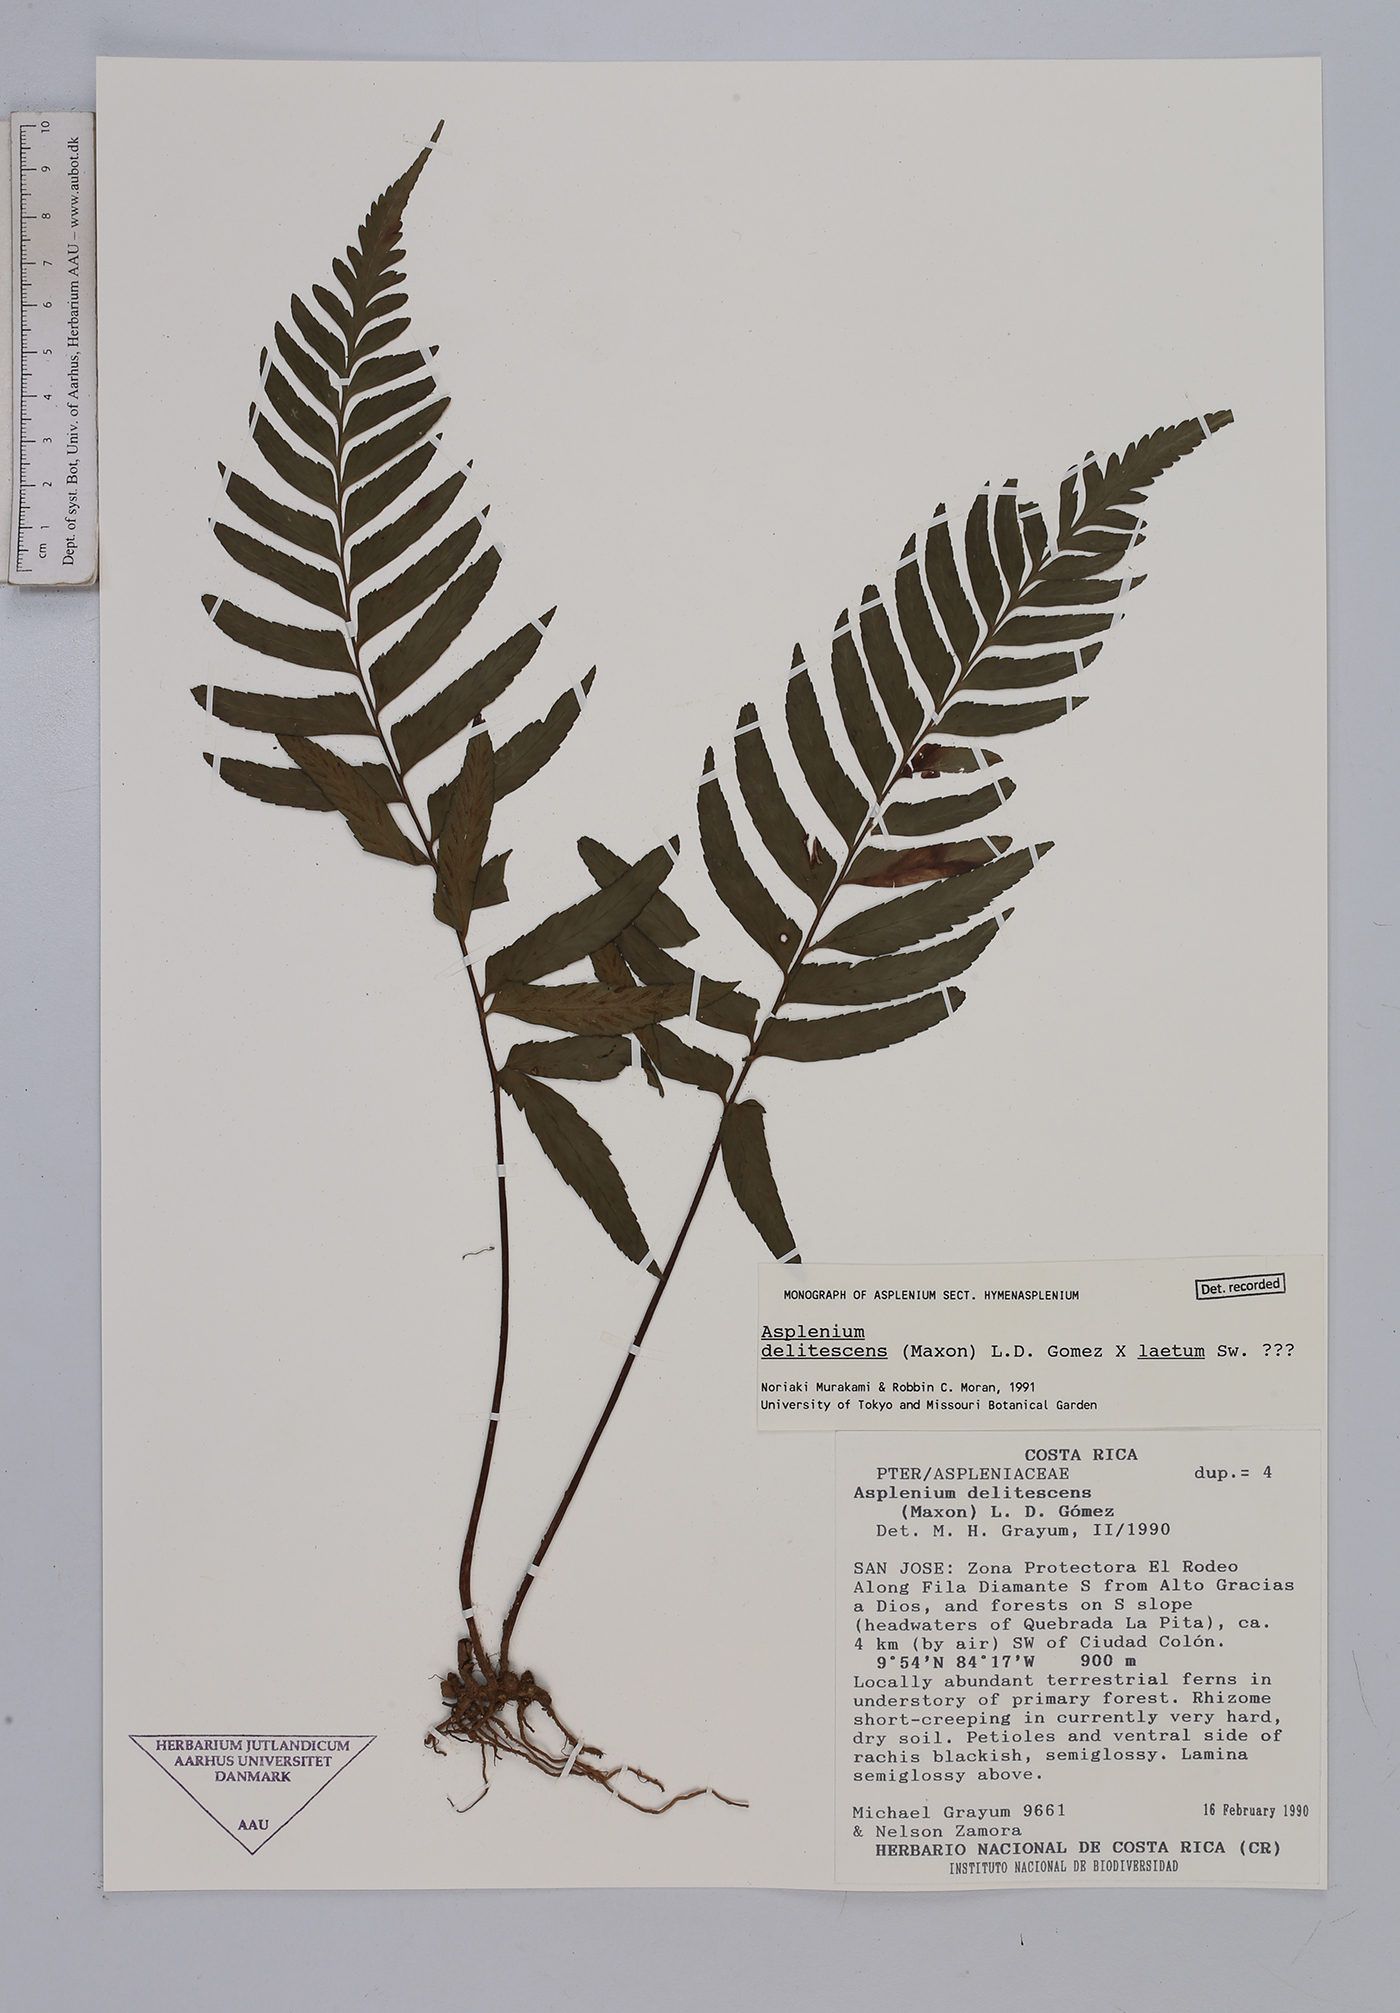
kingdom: Plantae
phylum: Tracheophyta
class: Polypodiopsida
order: Polypodiales
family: Aspleniaceae
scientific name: Aspleniaceae
